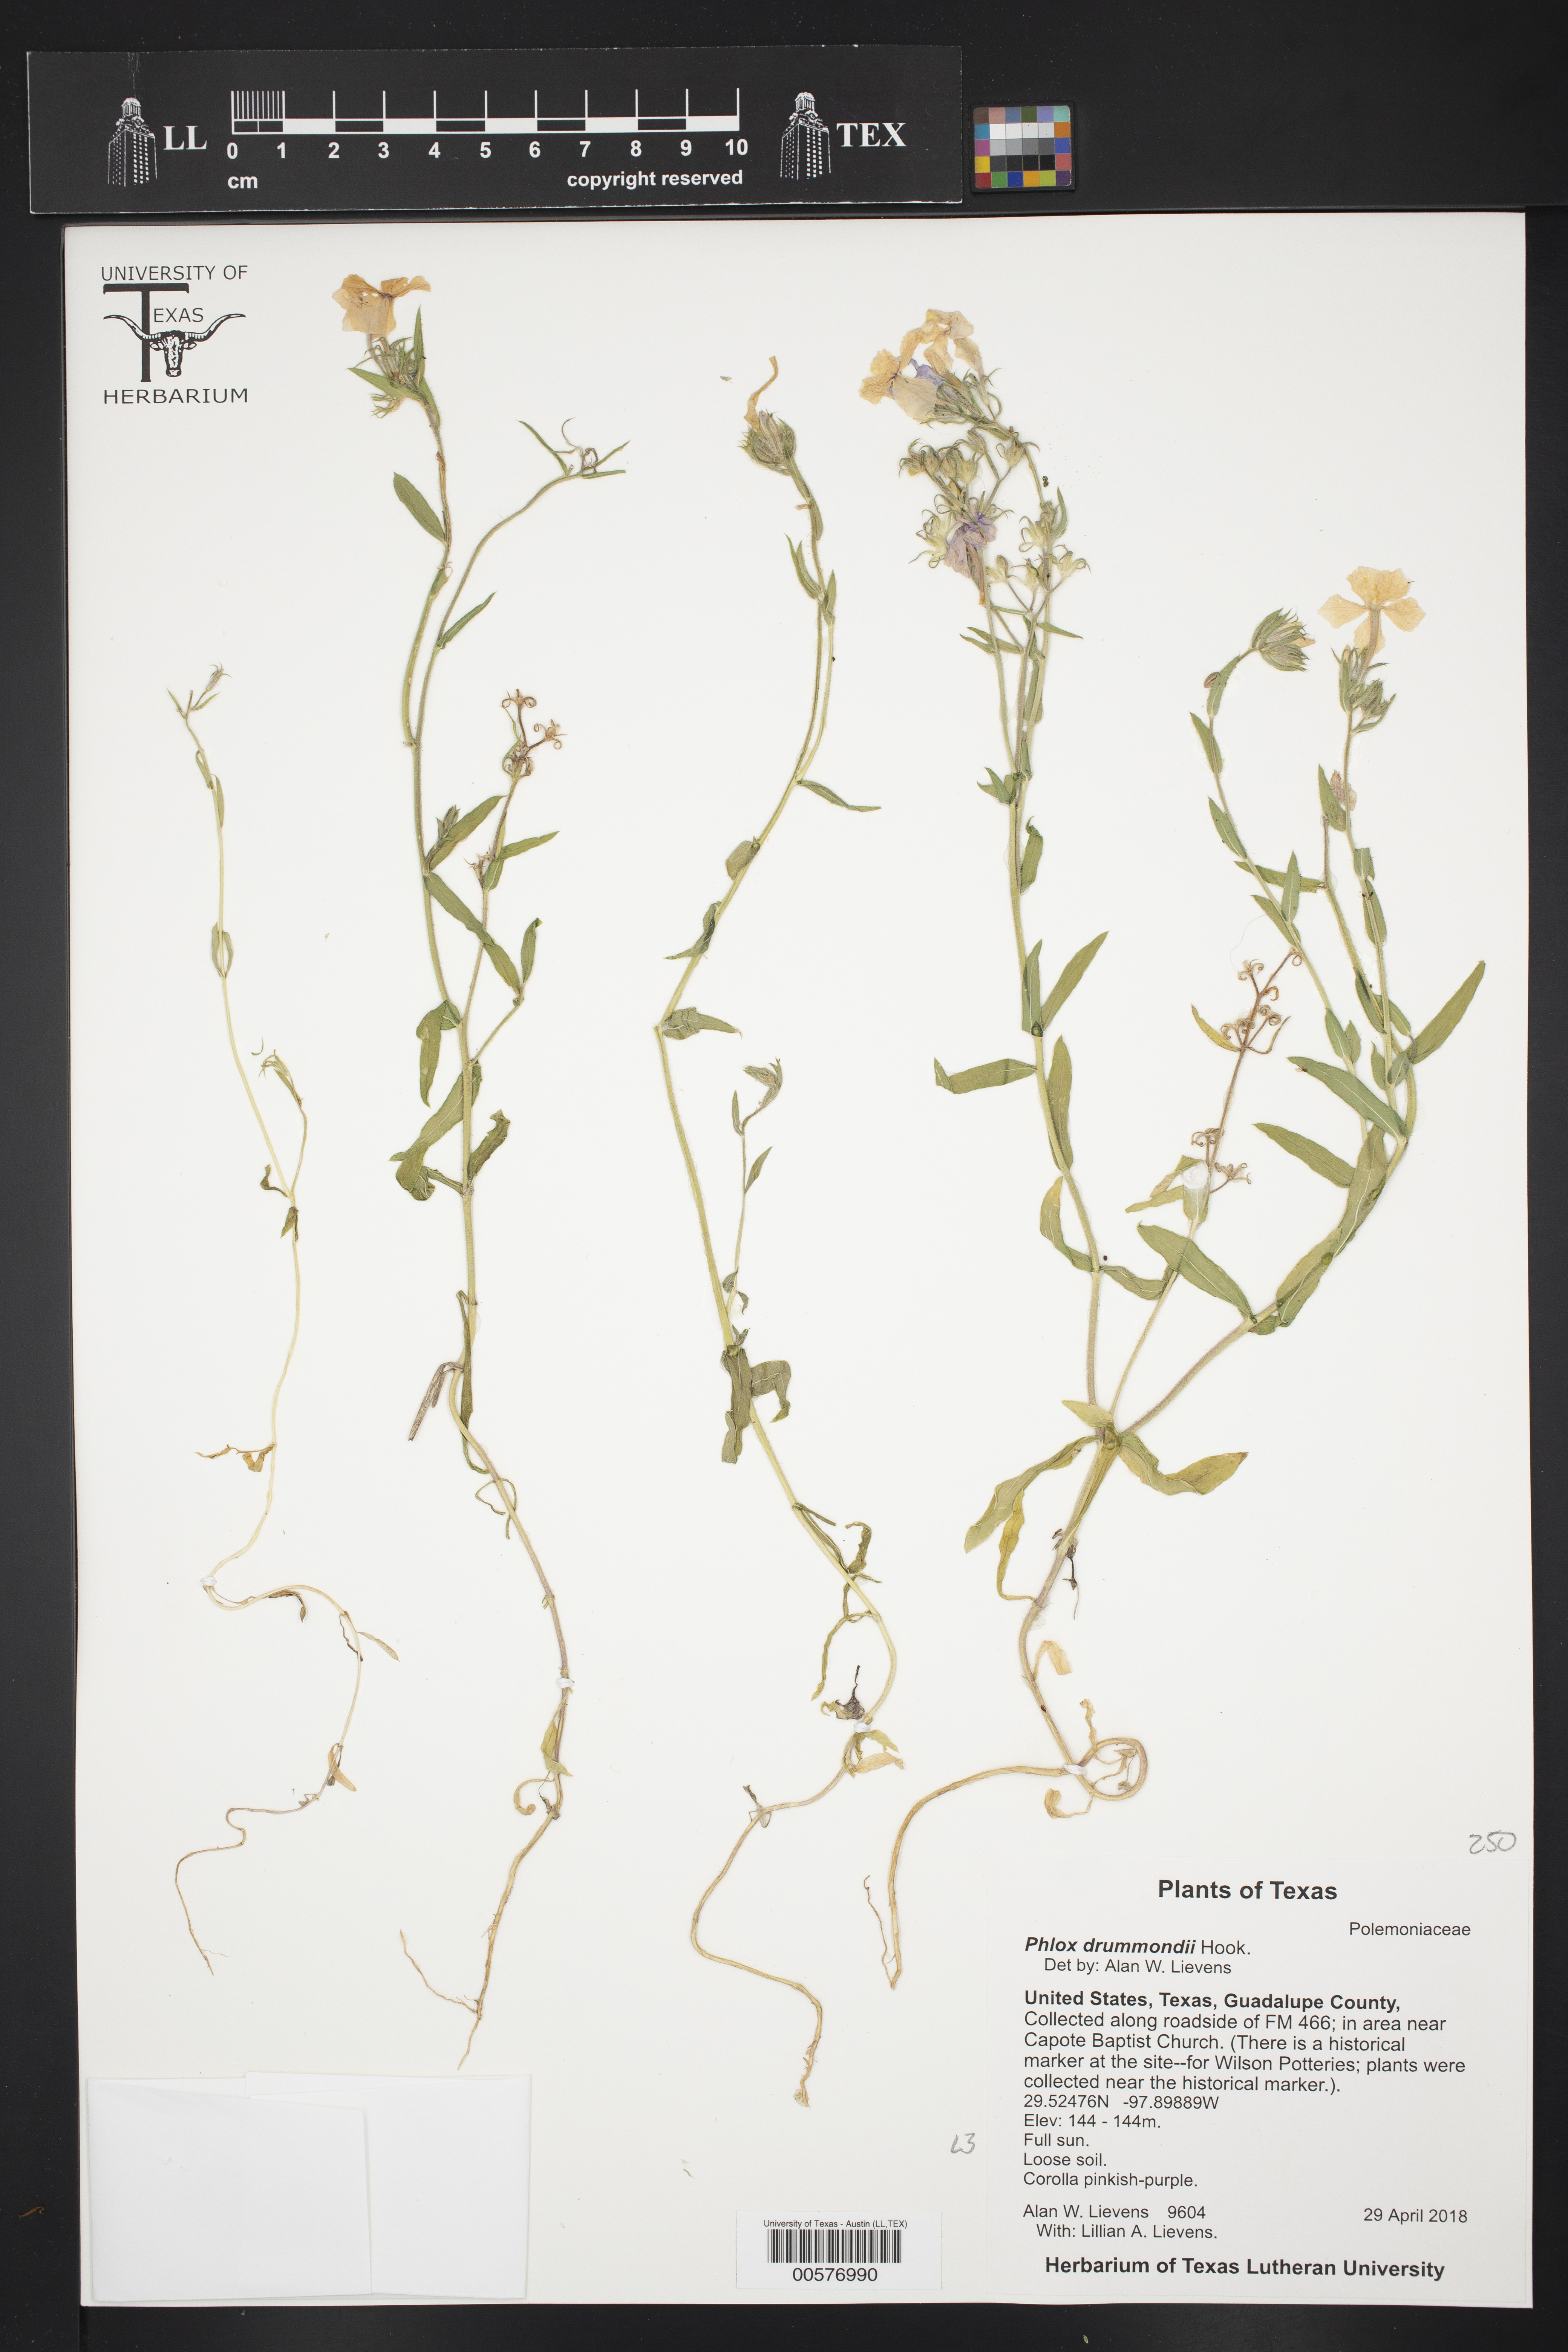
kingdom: Plantae
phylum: Tracheophyta
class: Magnoliopsida
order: Ericales
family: Polemoniaceae
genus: Phlox
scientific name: Phlox drummondii
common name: Drummond's phlox
